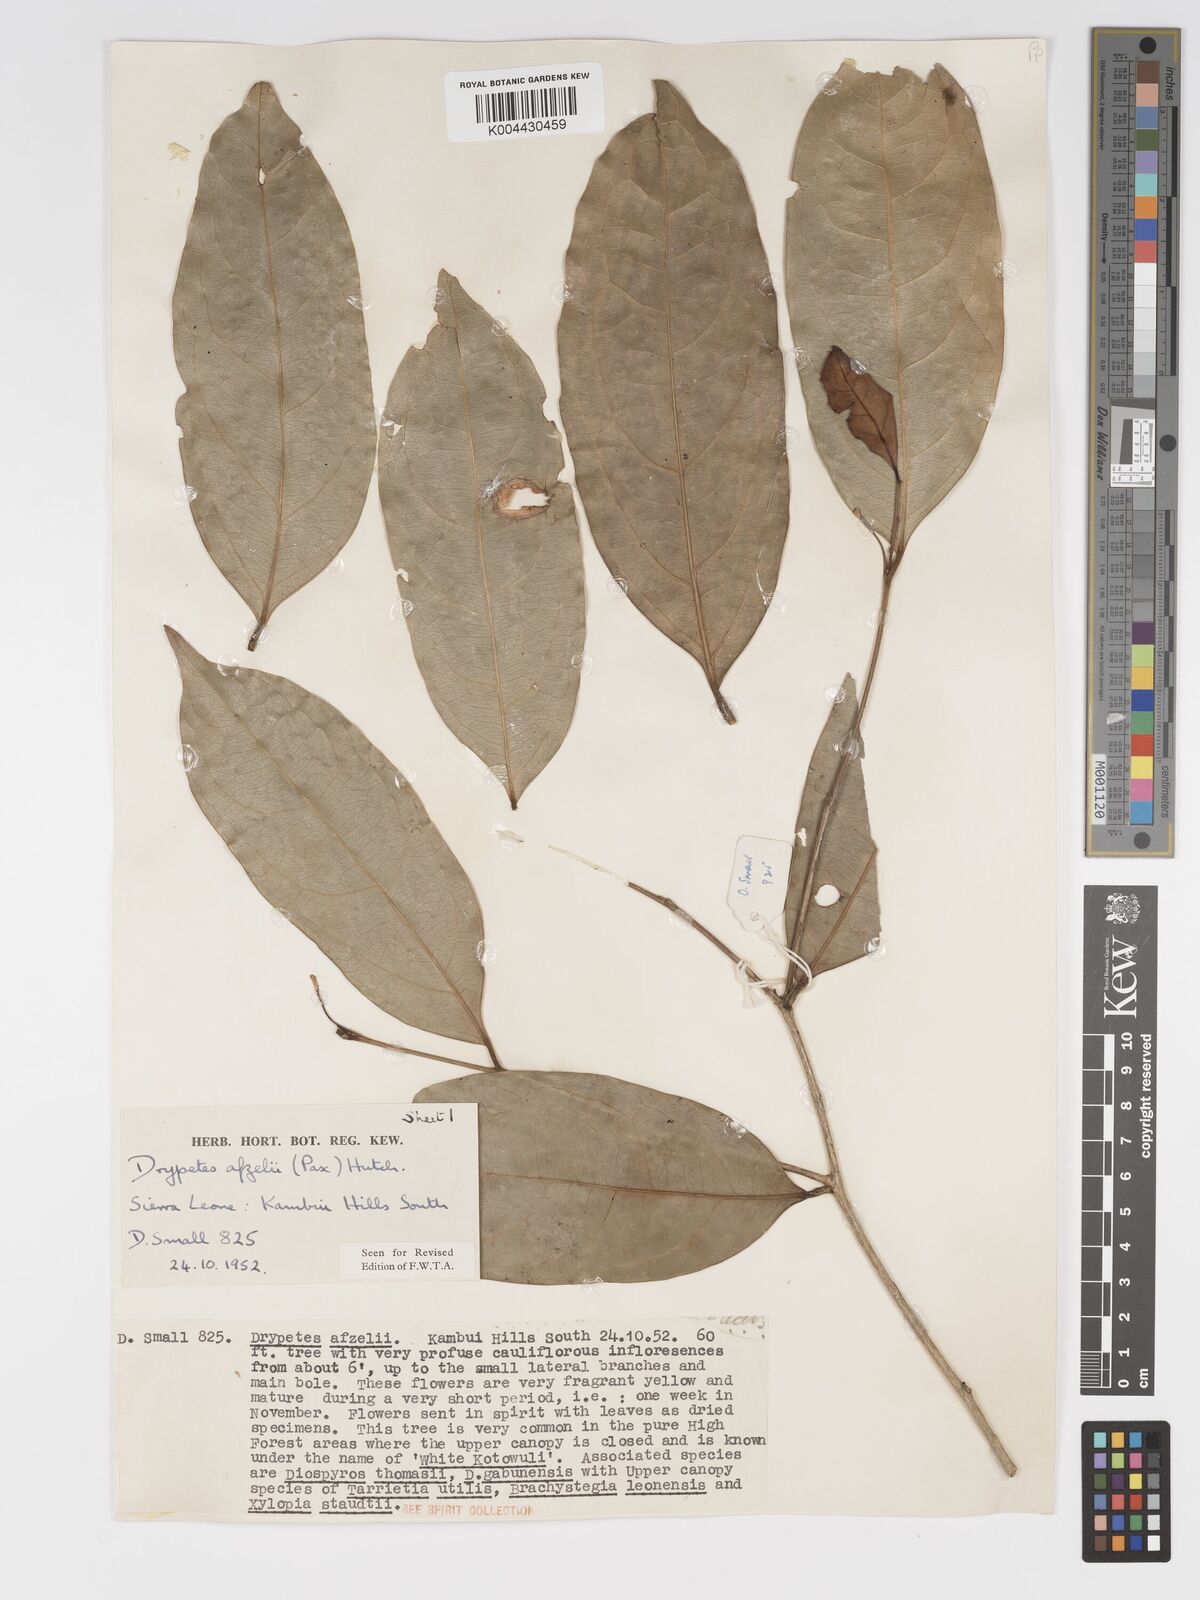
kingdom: Plantae
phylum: Tracheophyta
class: Magnoliopsida
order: Malpighiales
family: Putranjivaceae
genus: Drypetes
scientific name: Drypetes afzelii
